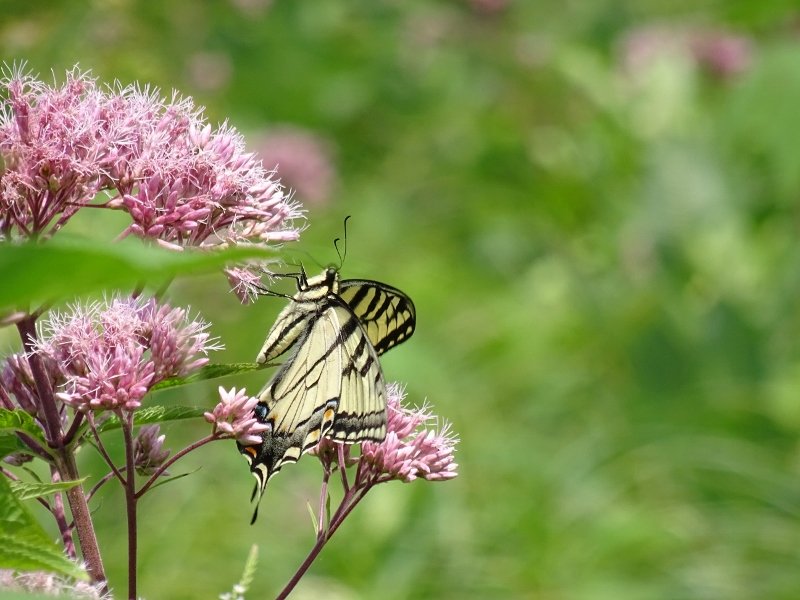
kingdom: Animalia
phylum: Arthropoda
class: Insecta
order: Lepidoptera
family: Papilionidae
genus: Pterourus
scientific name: Pterourus glaucus
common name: Eastern Tiger Swallowtail
